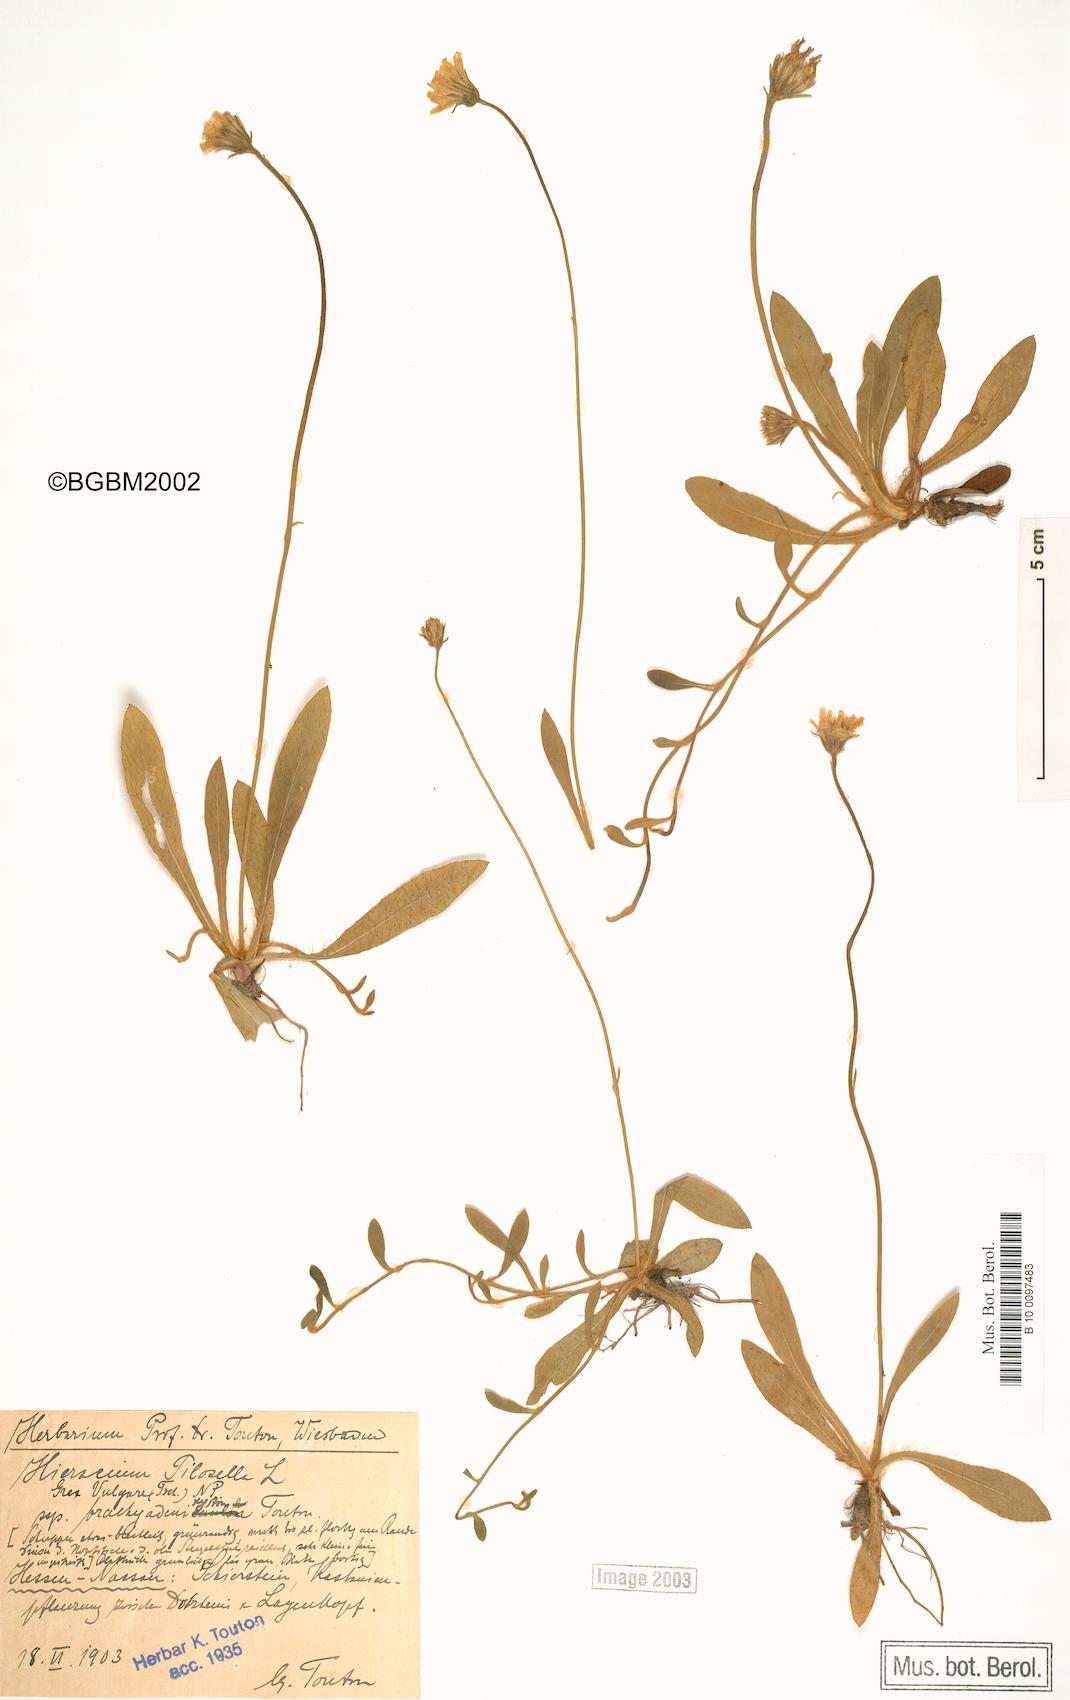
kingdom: Plantae
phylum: Tracheophyta
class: Magnoliopsida
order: Asterales
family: Asteraceae
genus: Pilosella
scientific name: Pilosella officinarum
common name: Mouse-ear hawkweed
